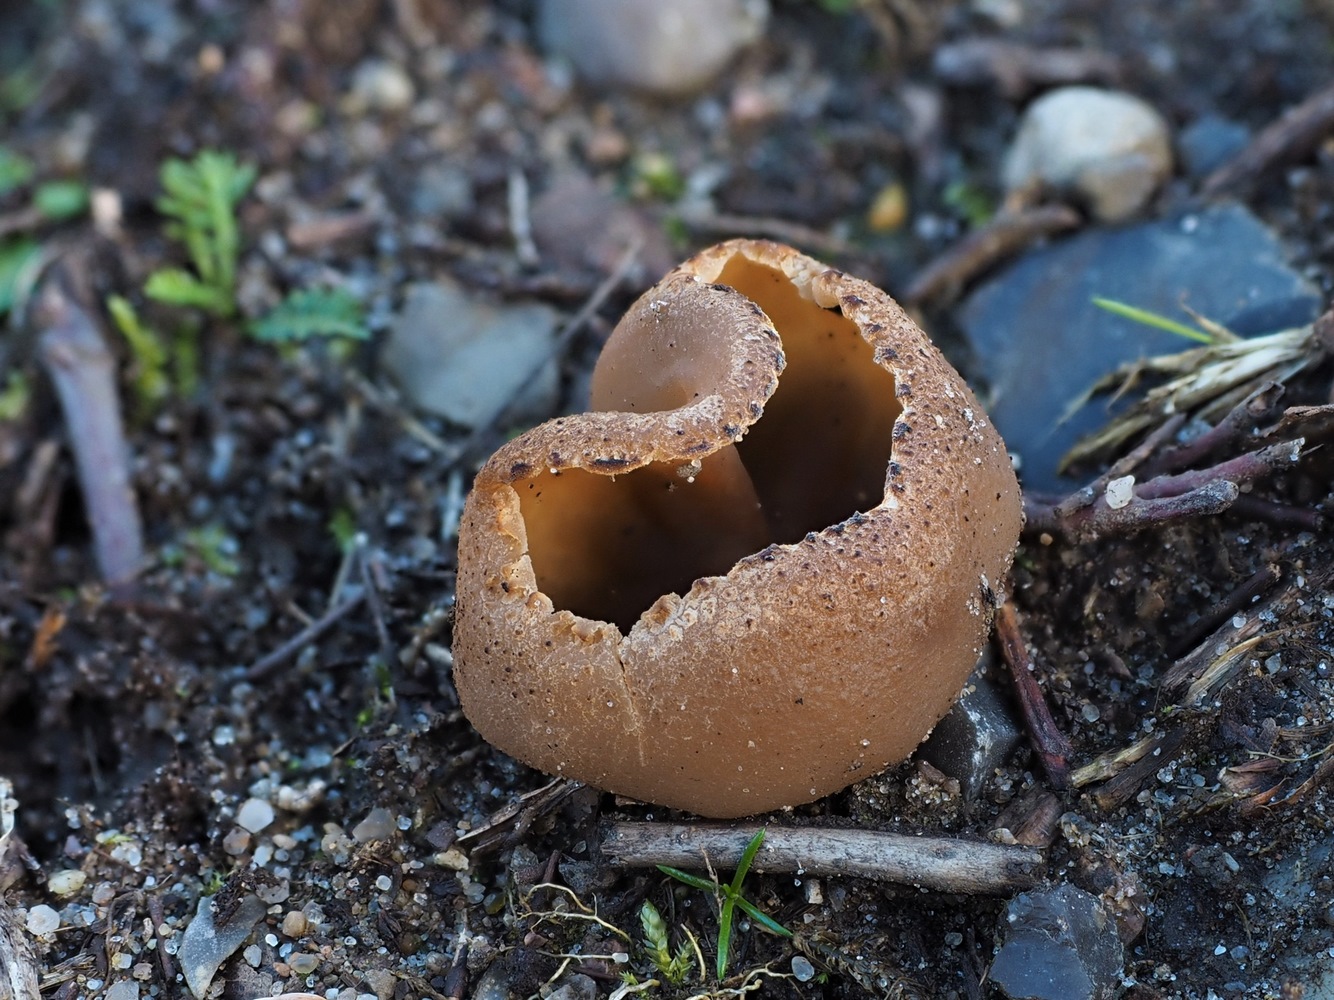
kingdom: Fungi
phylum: Ascomycota
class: Pezizomycetes
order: Pezizales
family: Pezizaceae
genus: Peziza
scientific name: Peziza
